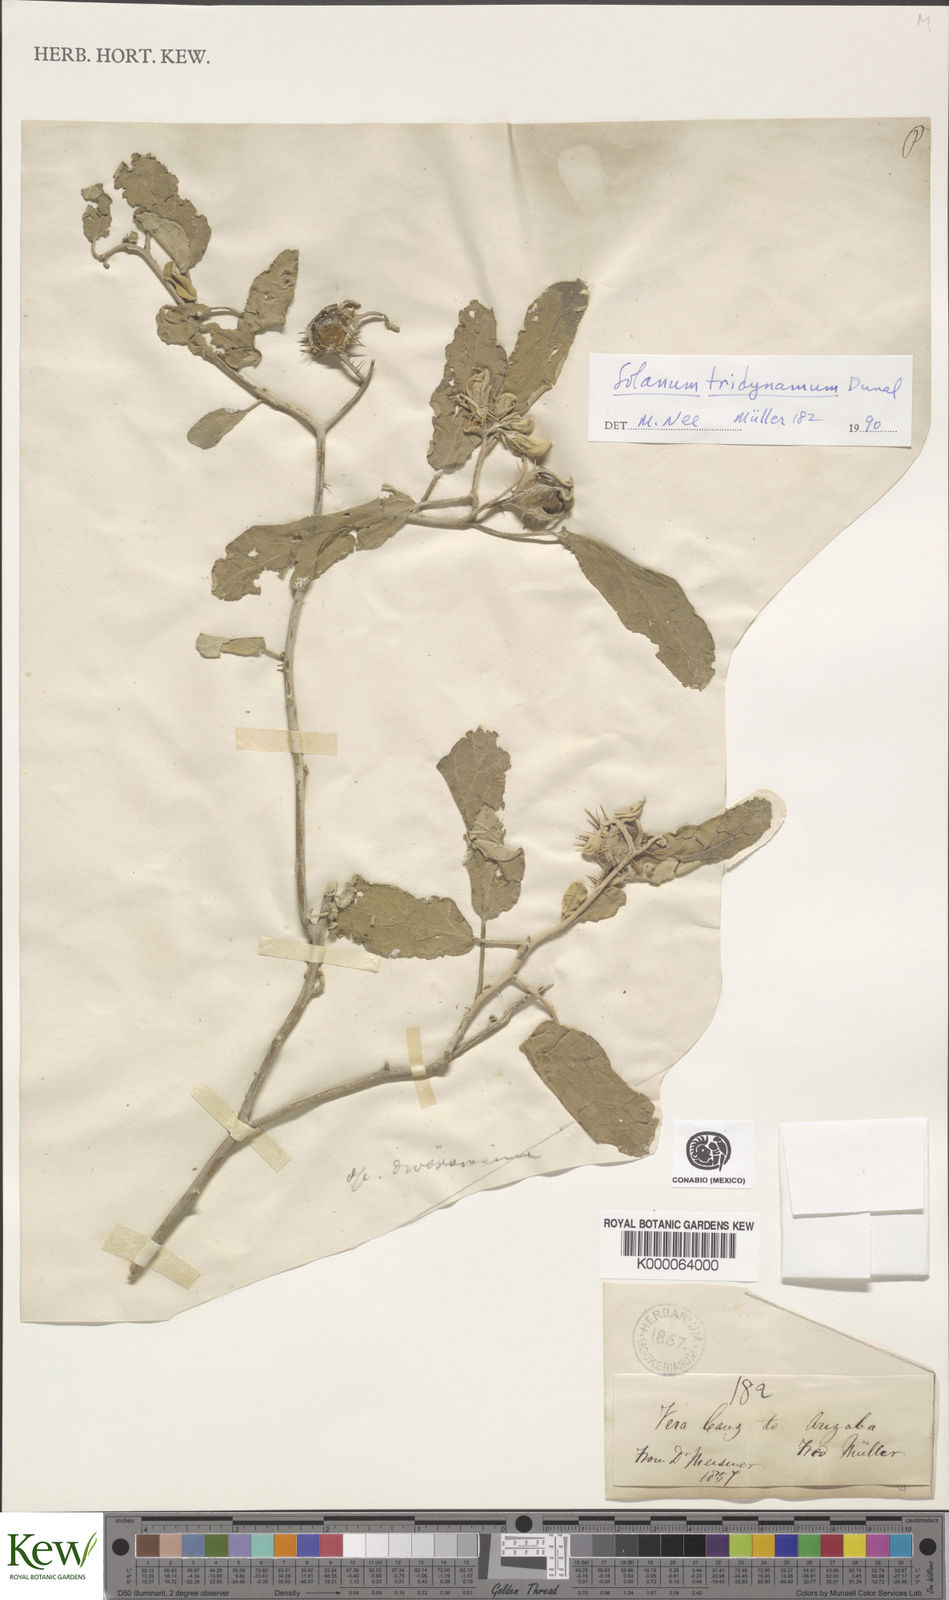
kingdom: Plantae
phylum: Tracheophyta
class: Magnoliopsida
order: Solanales
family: Solanaceae
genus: Solanum
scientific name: Solanum houstonii
